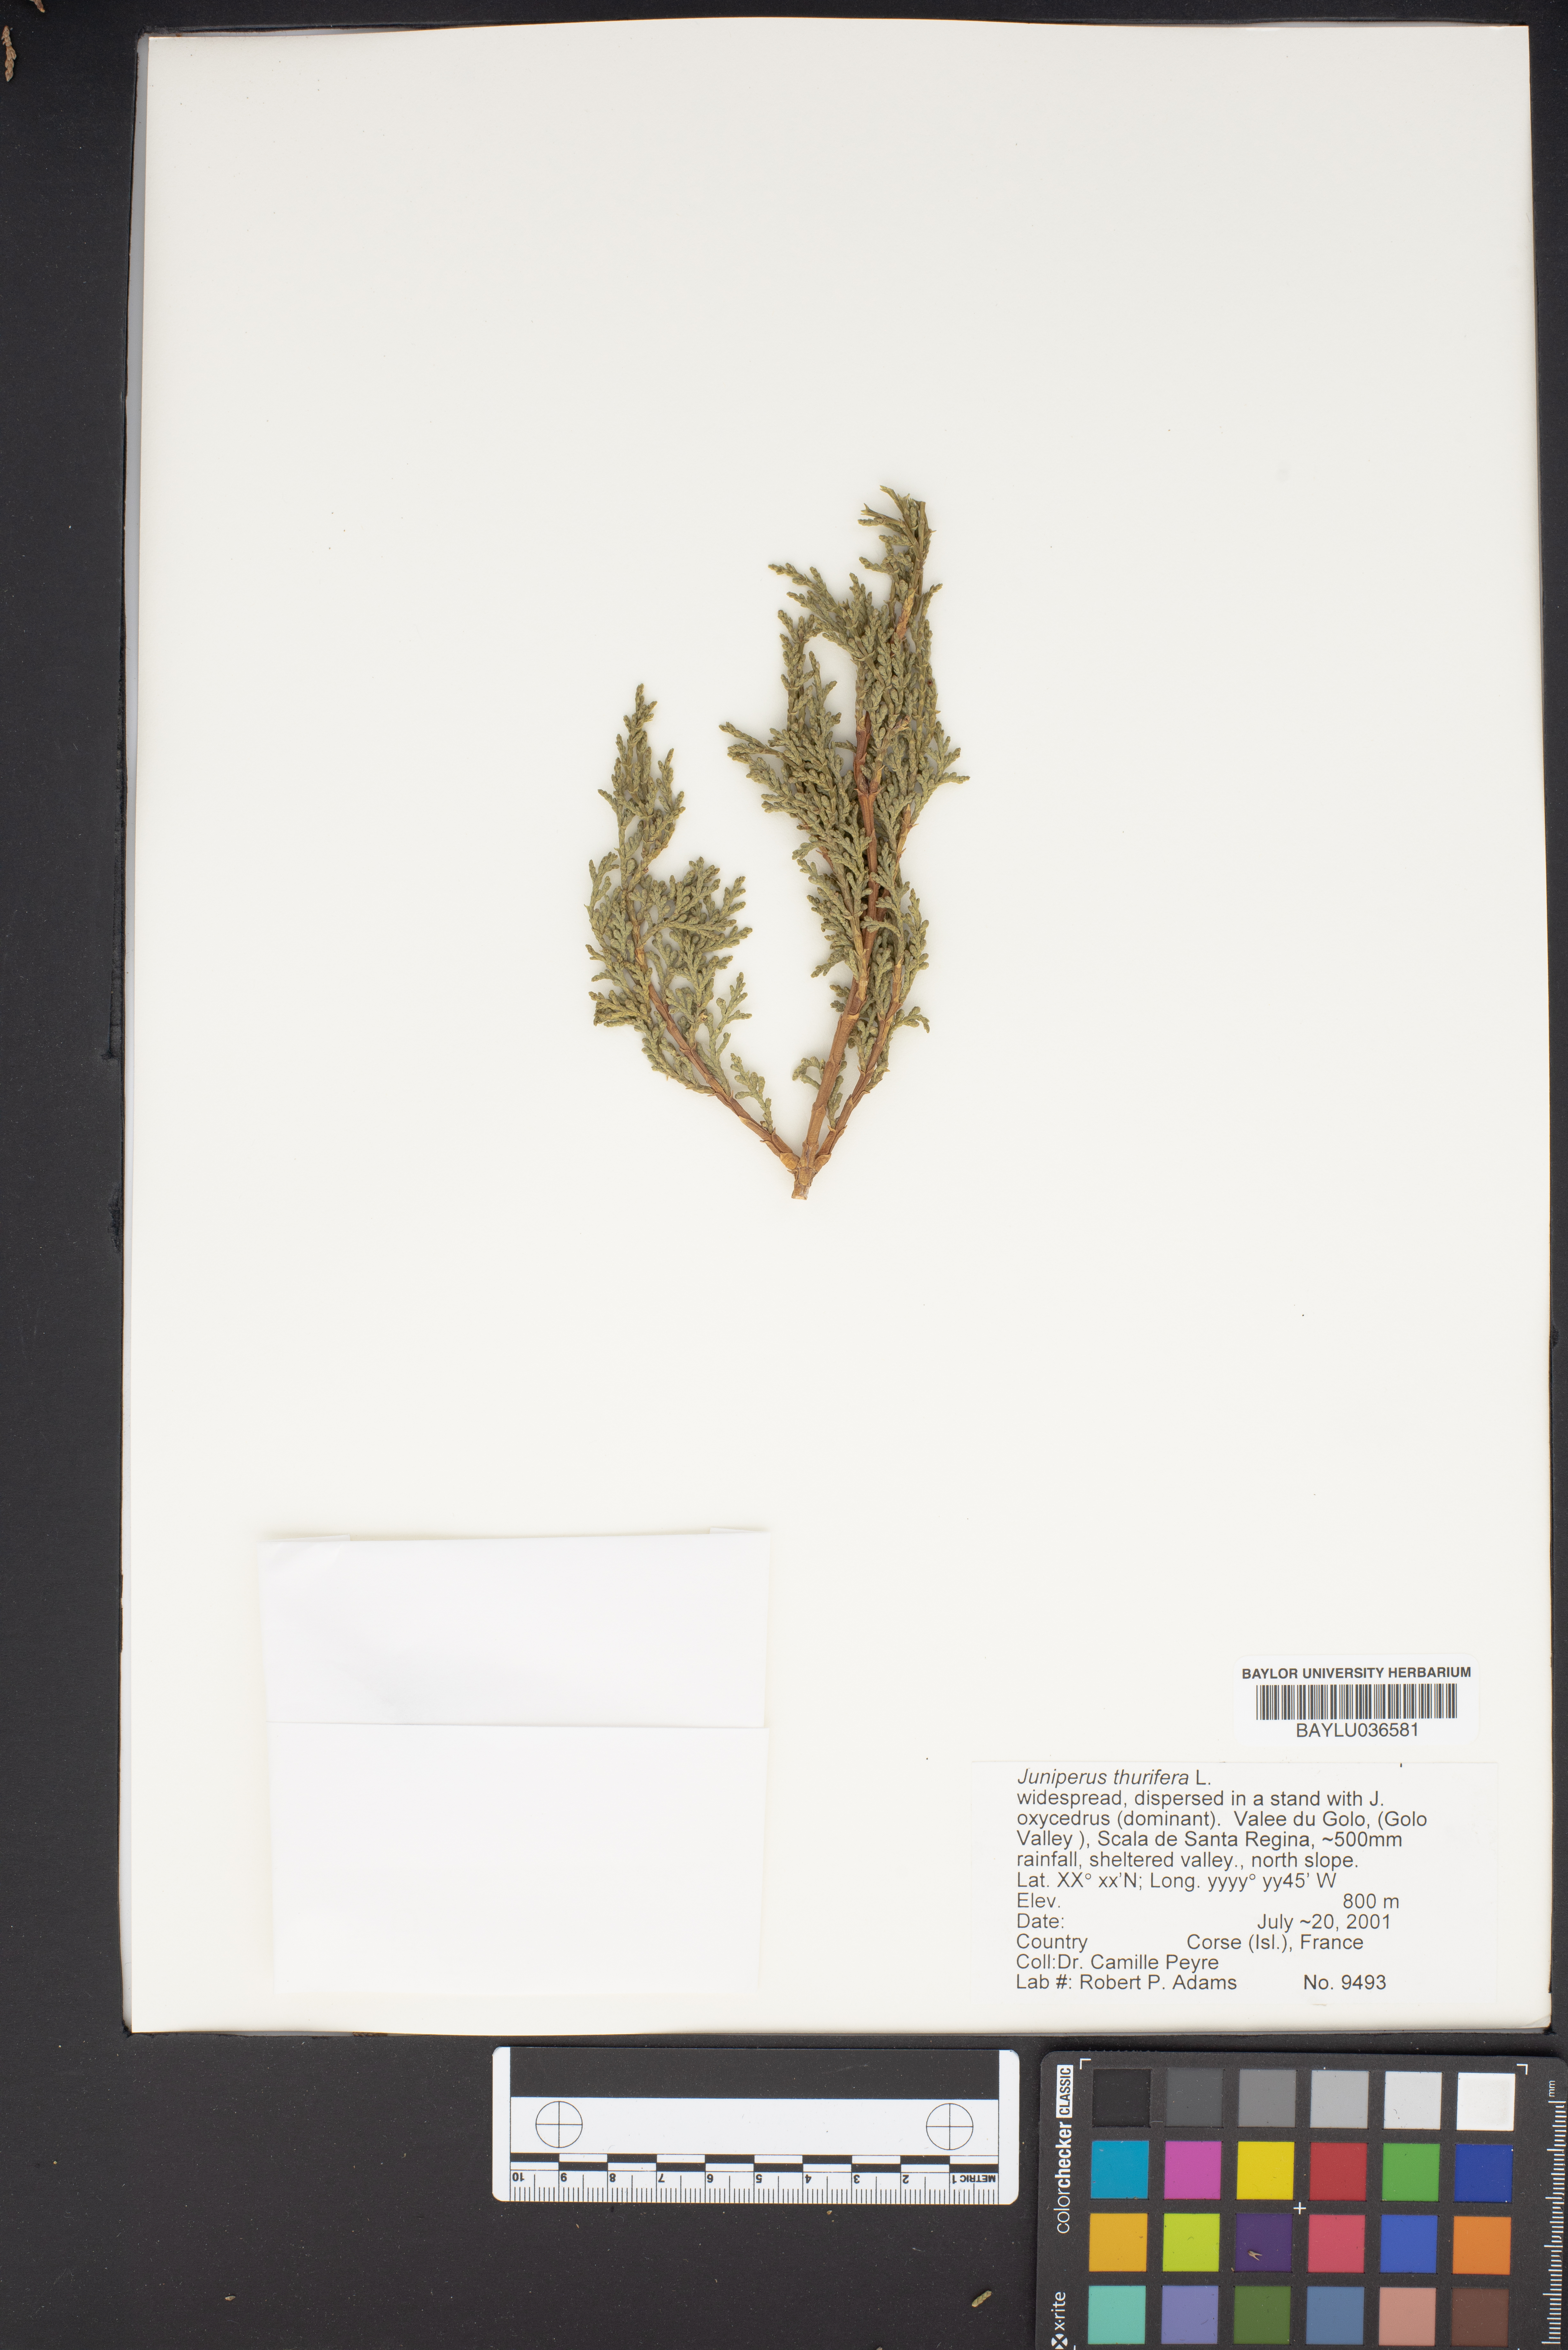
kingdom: Plantae
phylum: Tracheophyta
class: Pinopsida
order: Pinales
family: Cupressaceae
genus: Juniperus
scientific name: Juniperus thurifera
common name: Incense juniper
